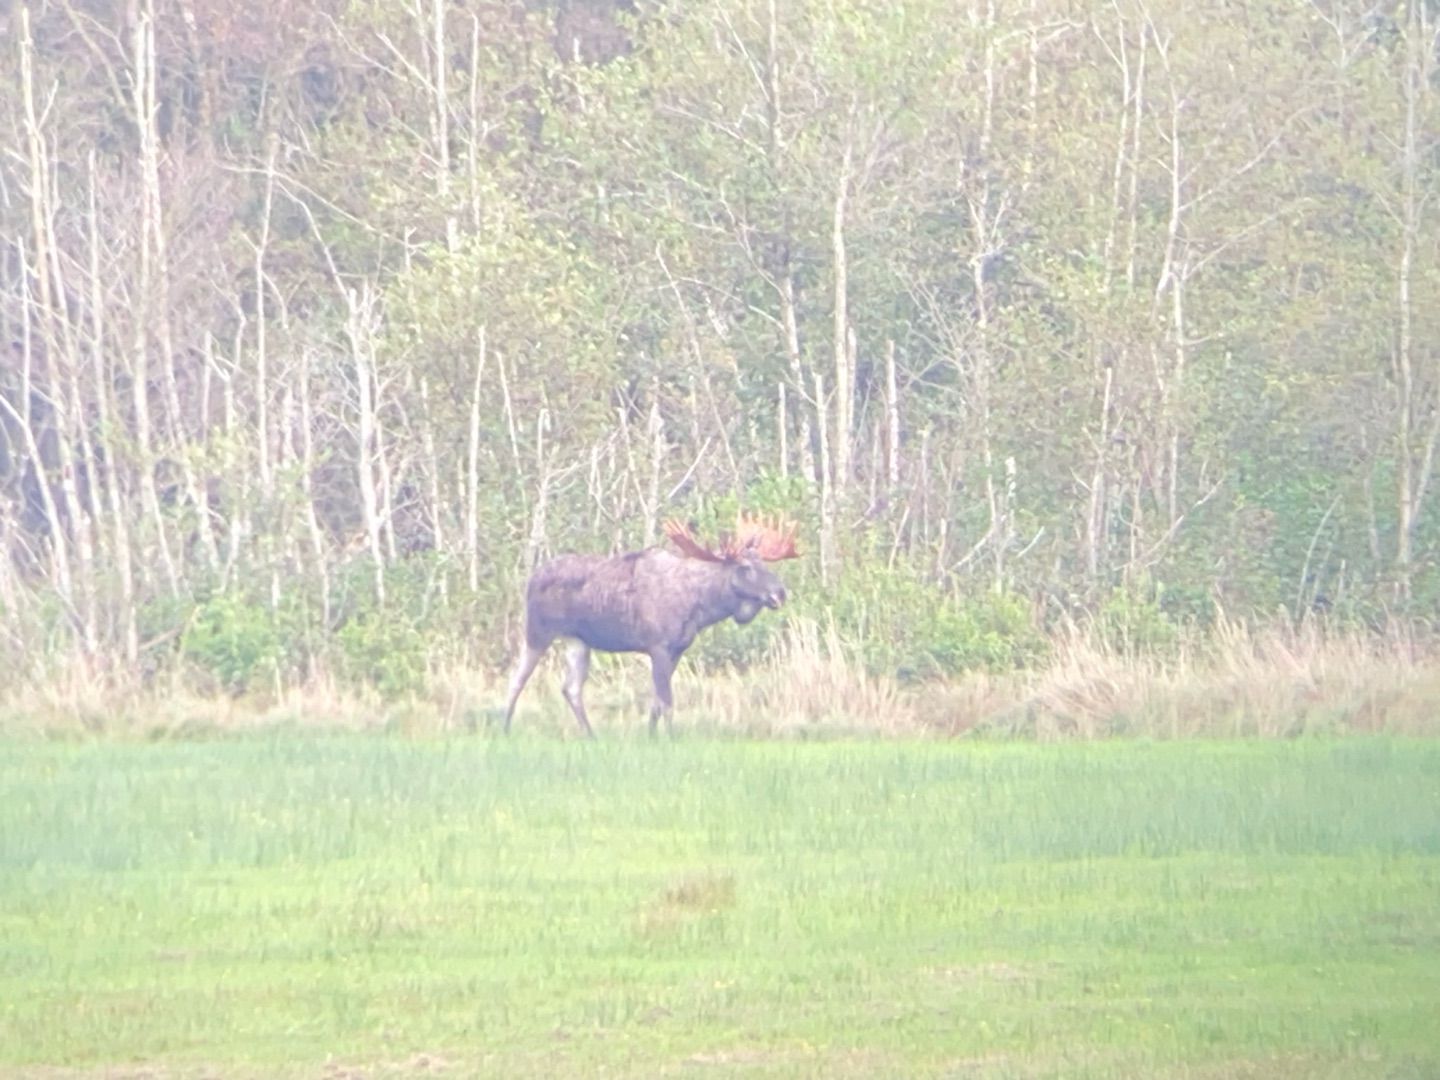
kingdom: Animalia
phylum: Chordata
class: Mammalia
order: Artiodactyla
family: Cervidae
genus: Alces
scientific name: Alces alces
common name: Elg
